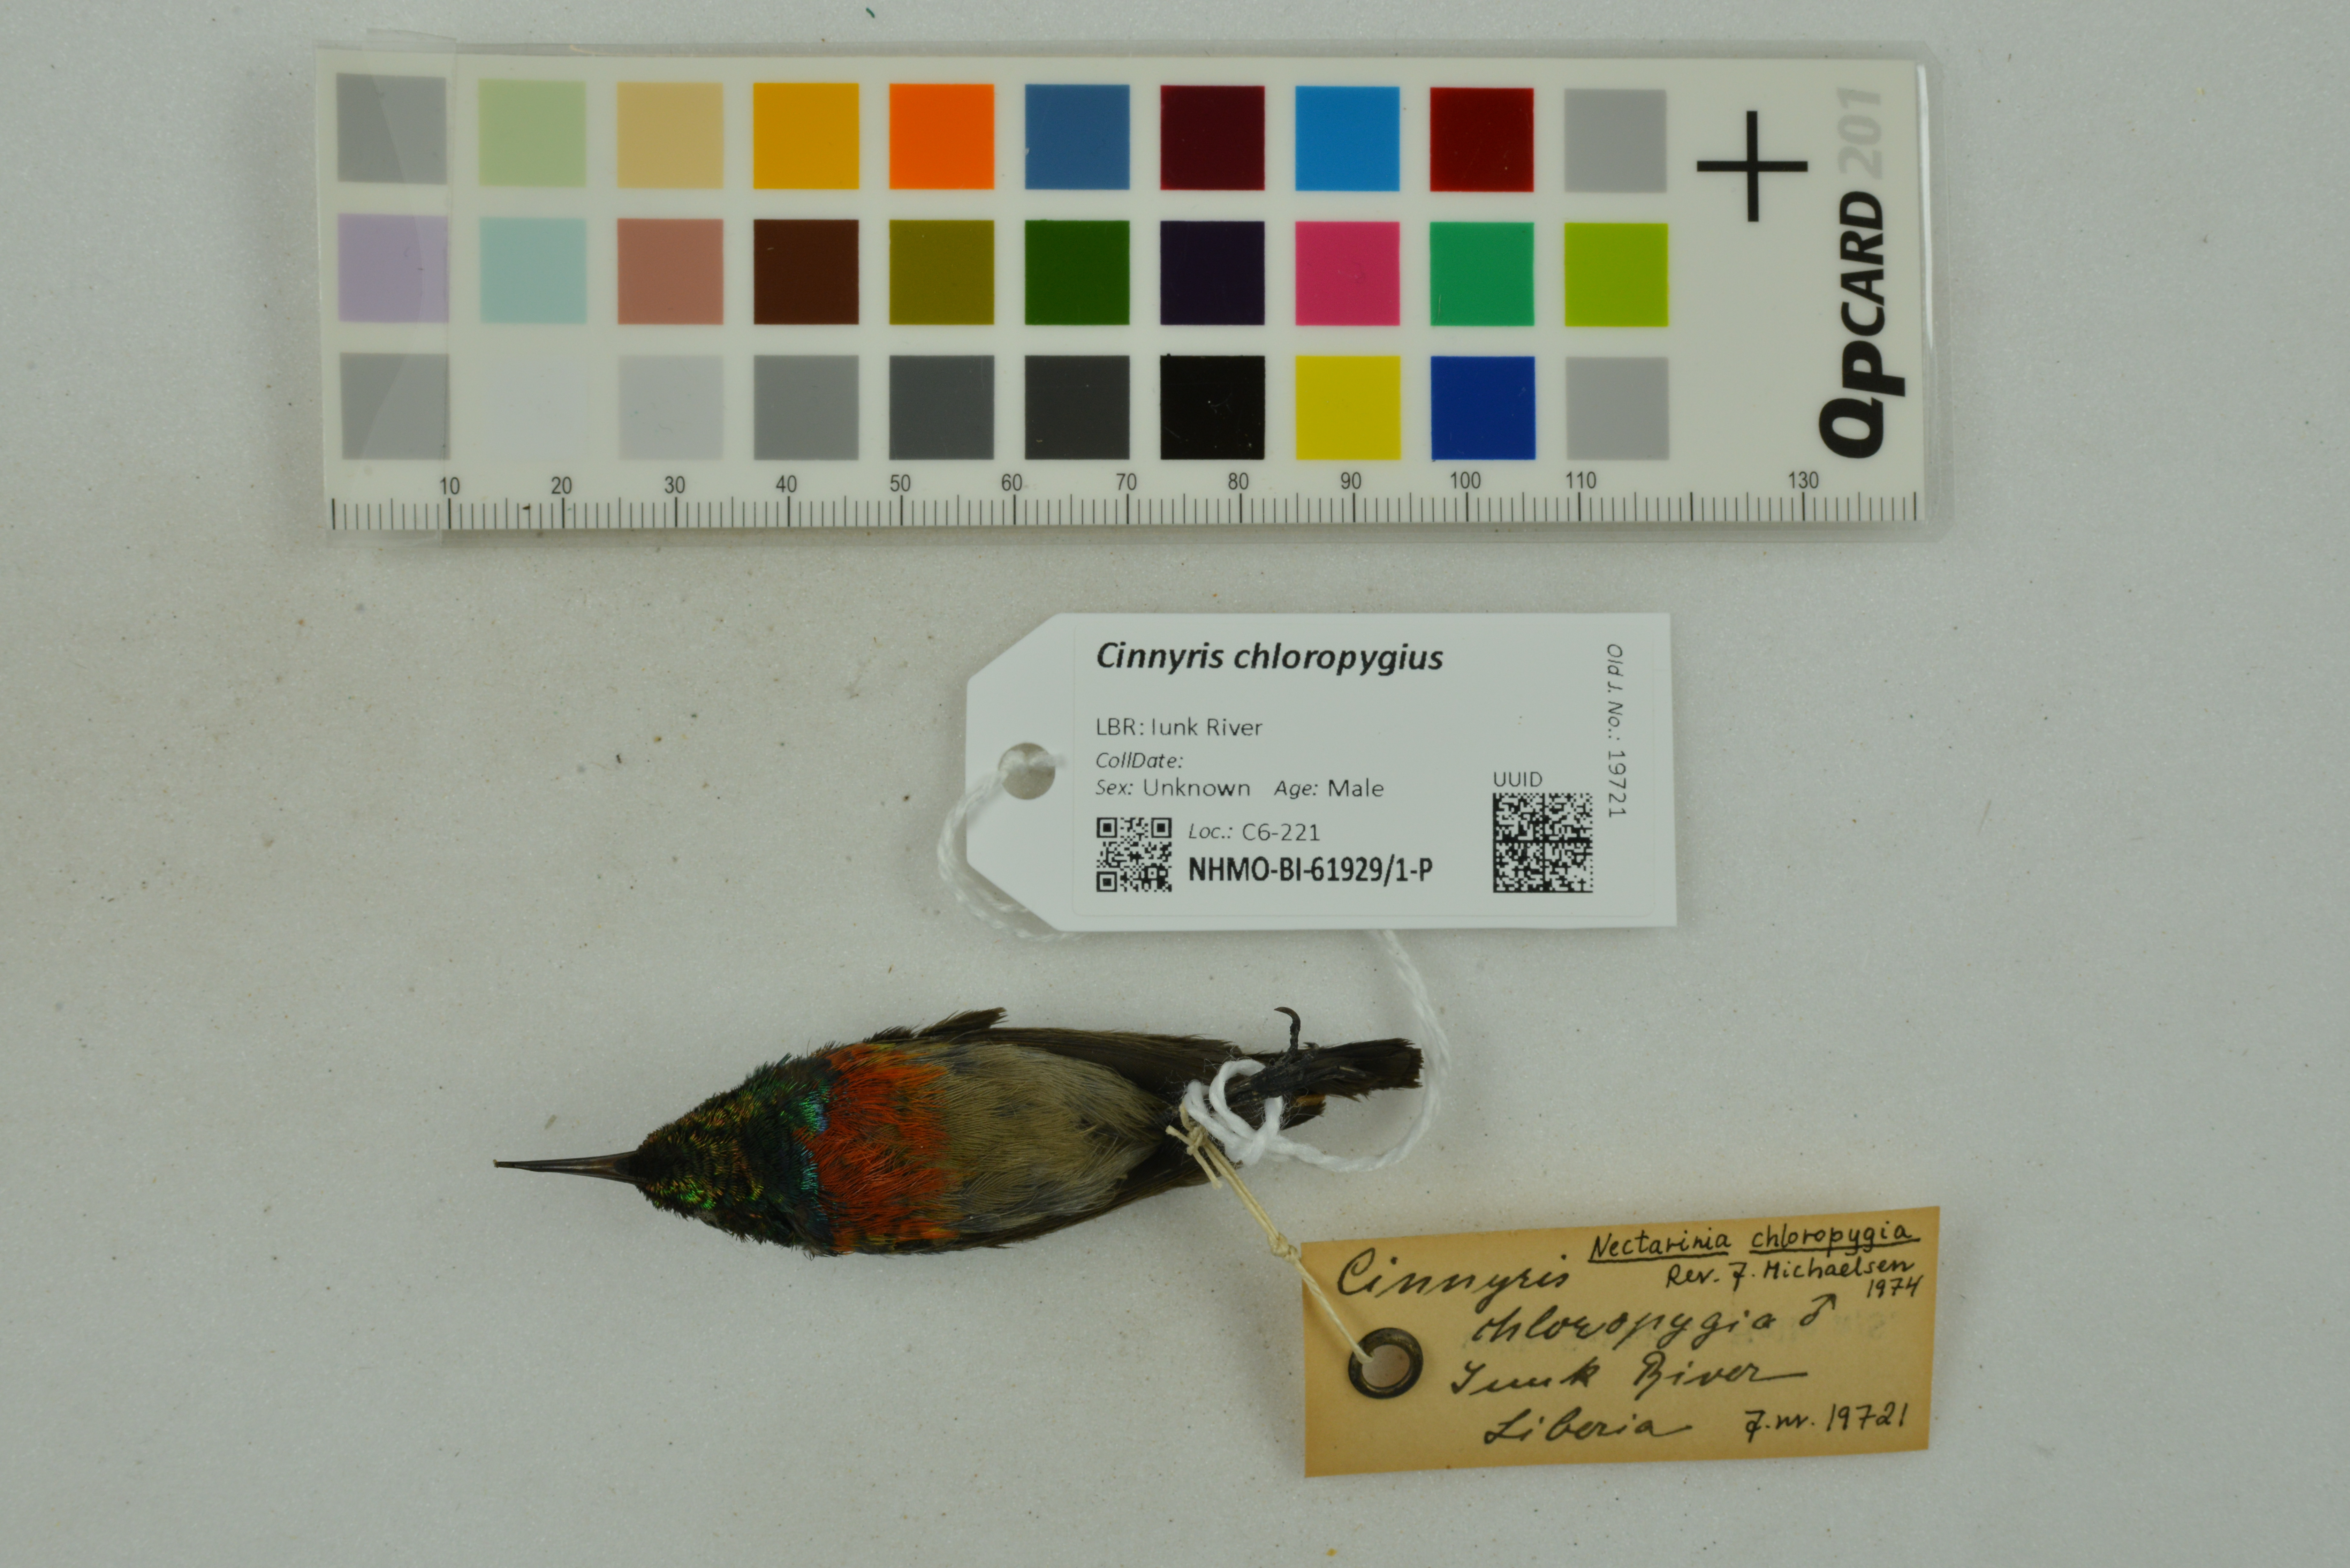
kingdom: Animalia
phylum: Chordata
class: Aves
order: Passeriformes
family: Nectariniidae
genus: Cinnyris
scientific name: Cinnyris chloropygius
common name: Olive-bellied sunbird
